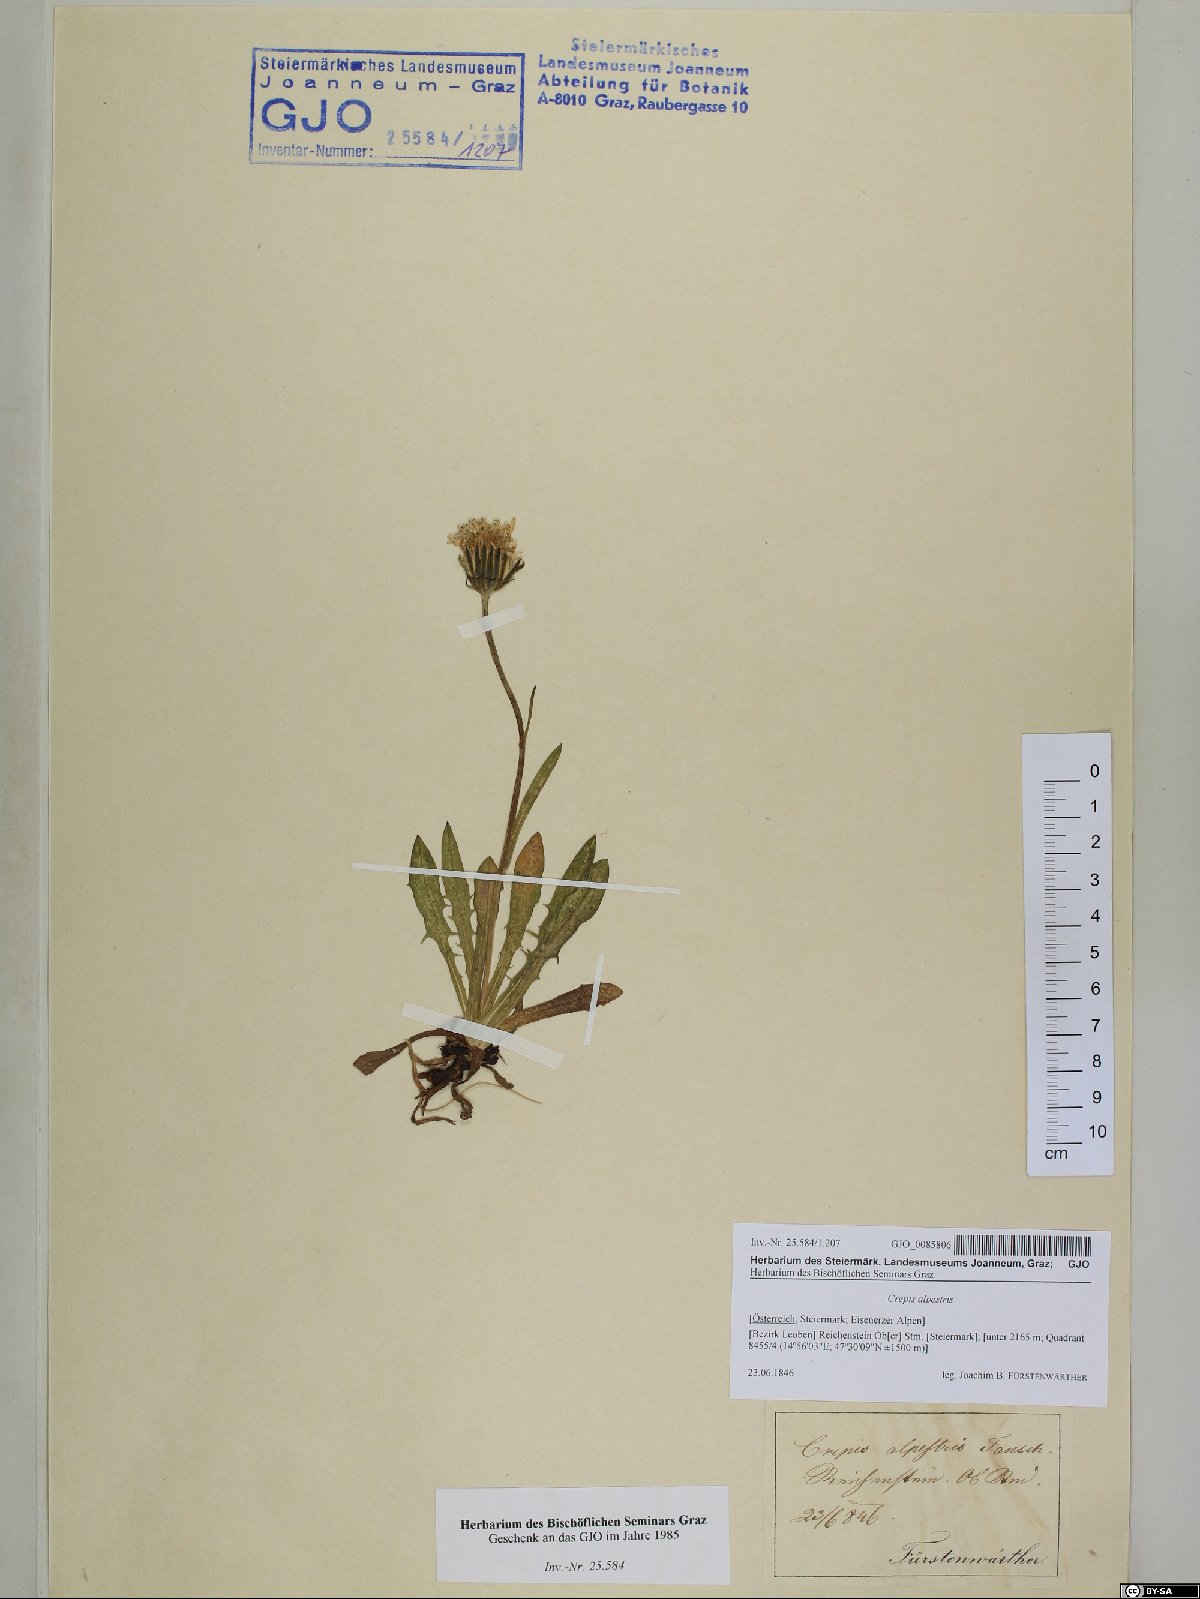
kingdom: Plantae
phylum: Tracheophyta
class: Magnoliopsida
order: Asterales
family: Asteraceae
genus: Crepis
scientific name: Crepis alpestris
